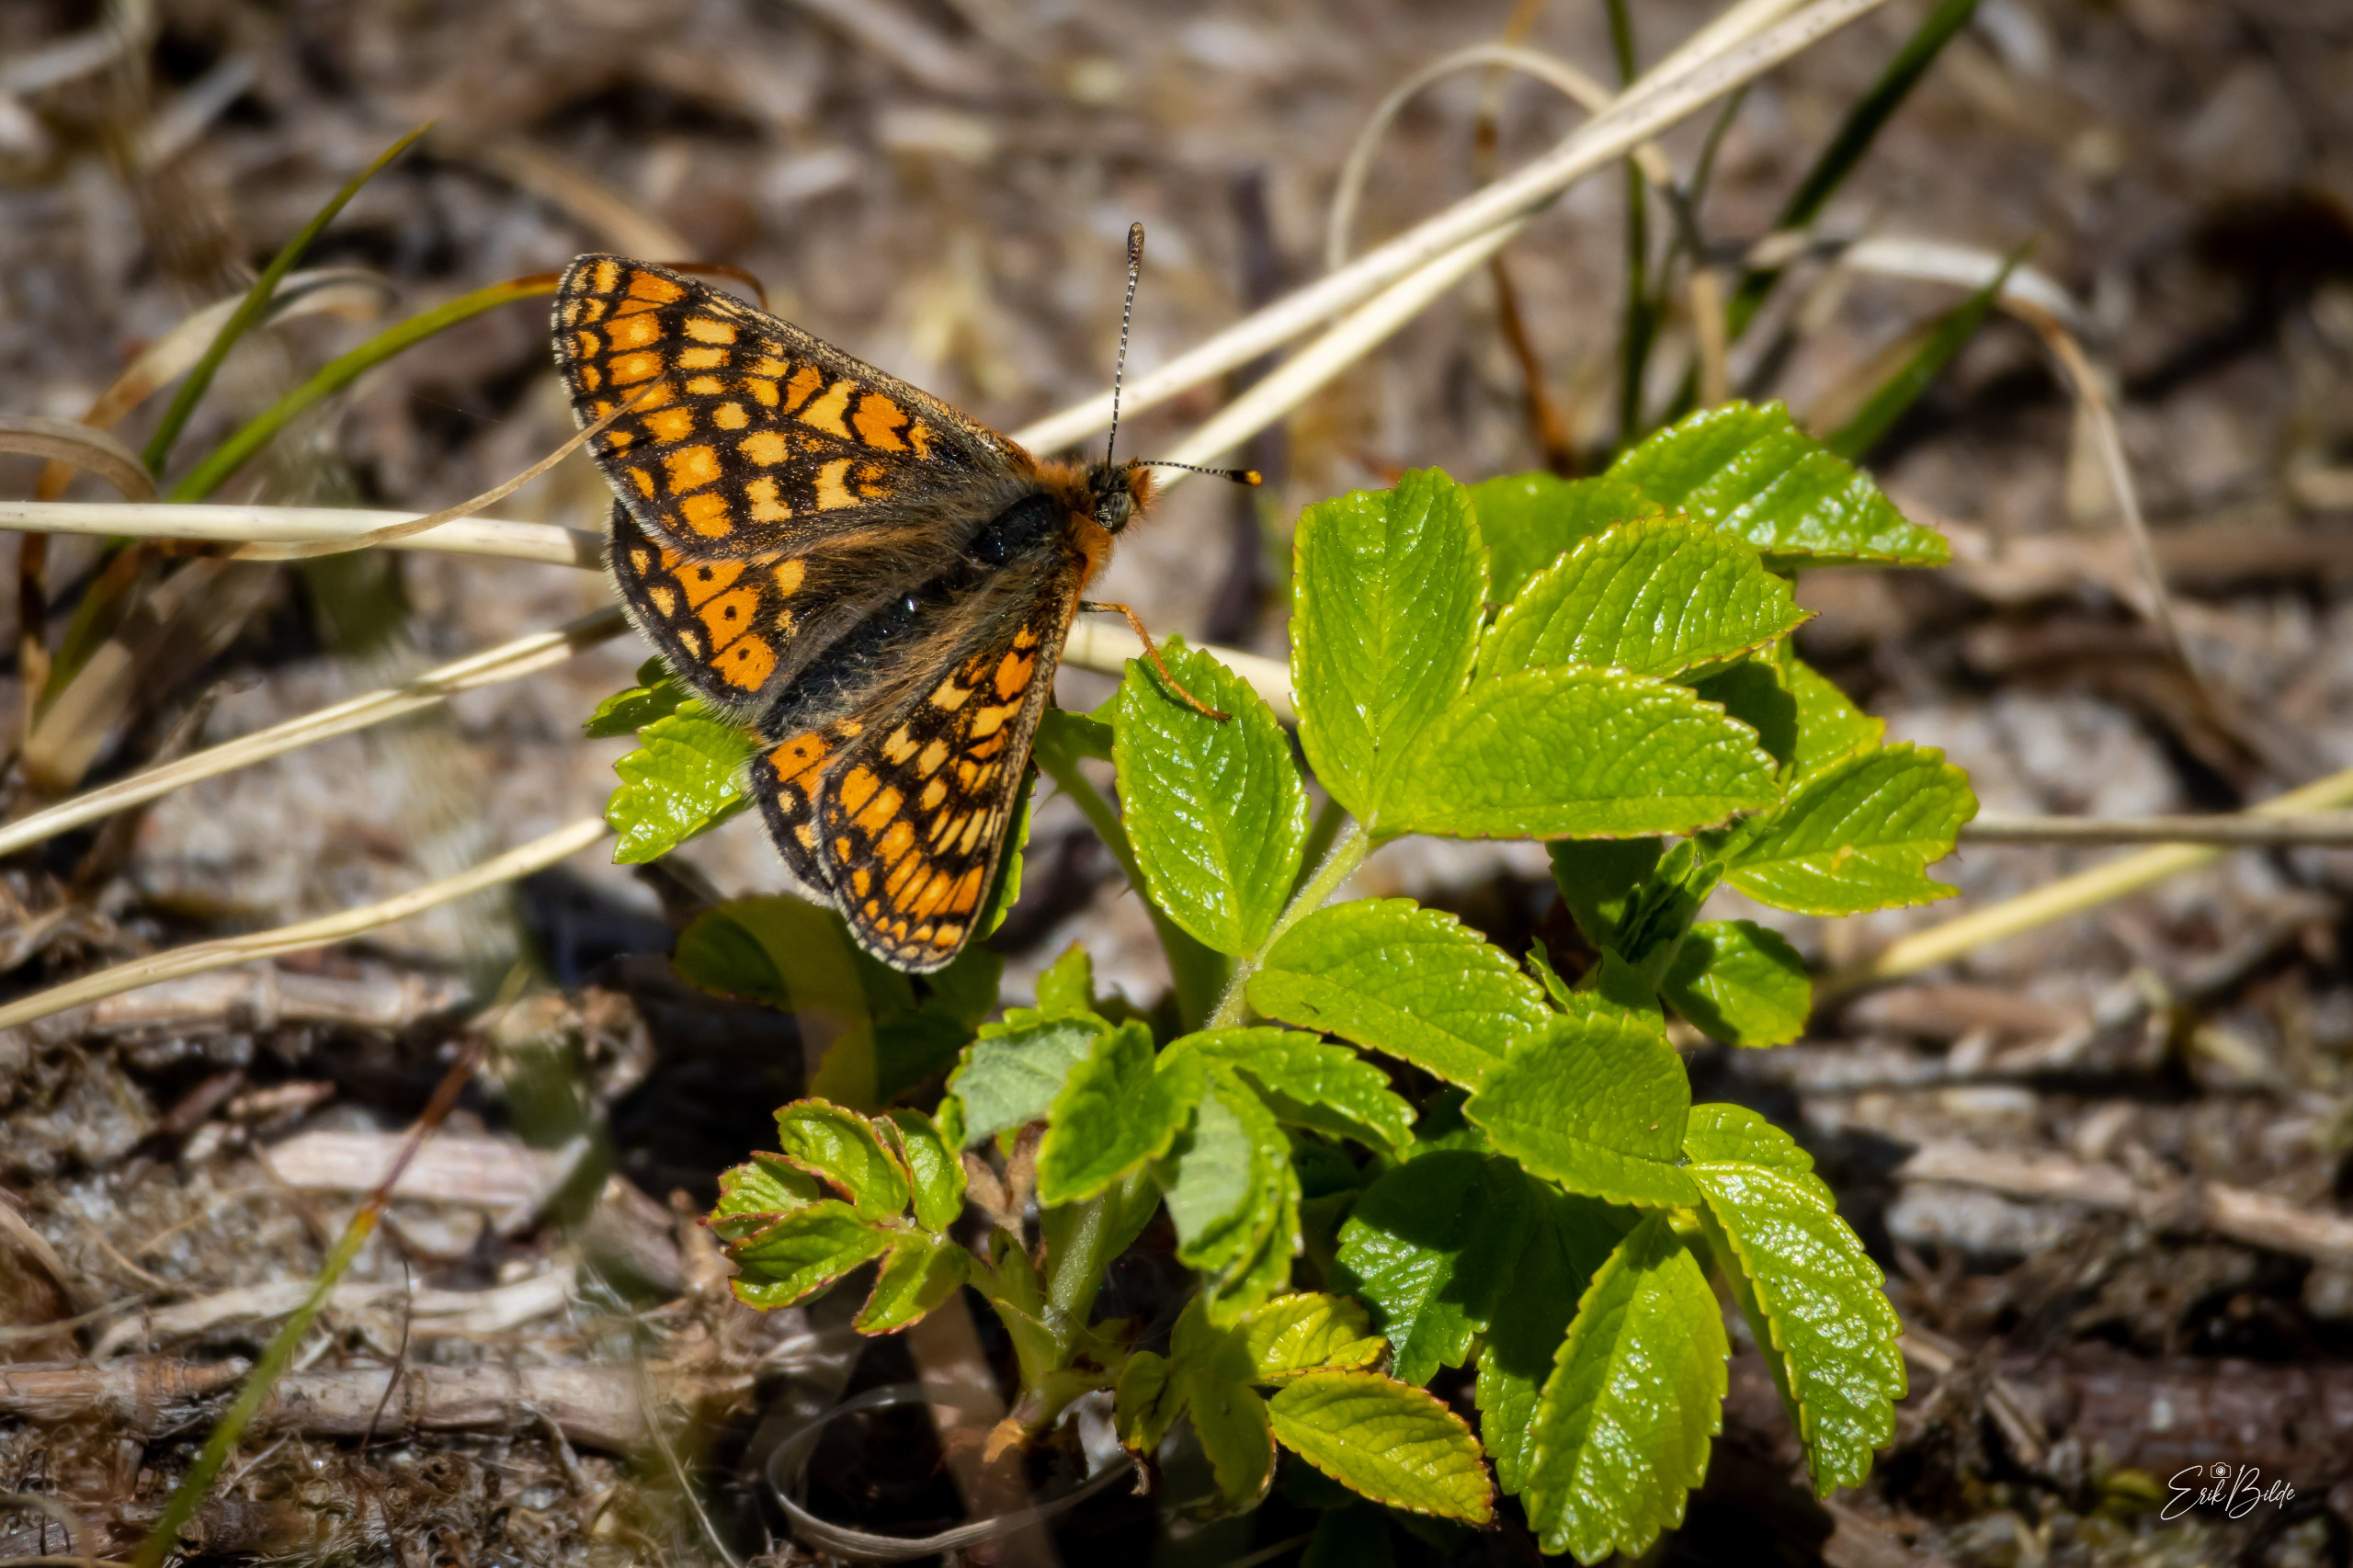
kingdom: Animalia
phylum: Arthropoda
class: Insecta
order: Lepidoptera
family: Nymphalidae
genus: Euphydryas
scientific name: Euphydryas aurinia
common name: Hedepletvinge
